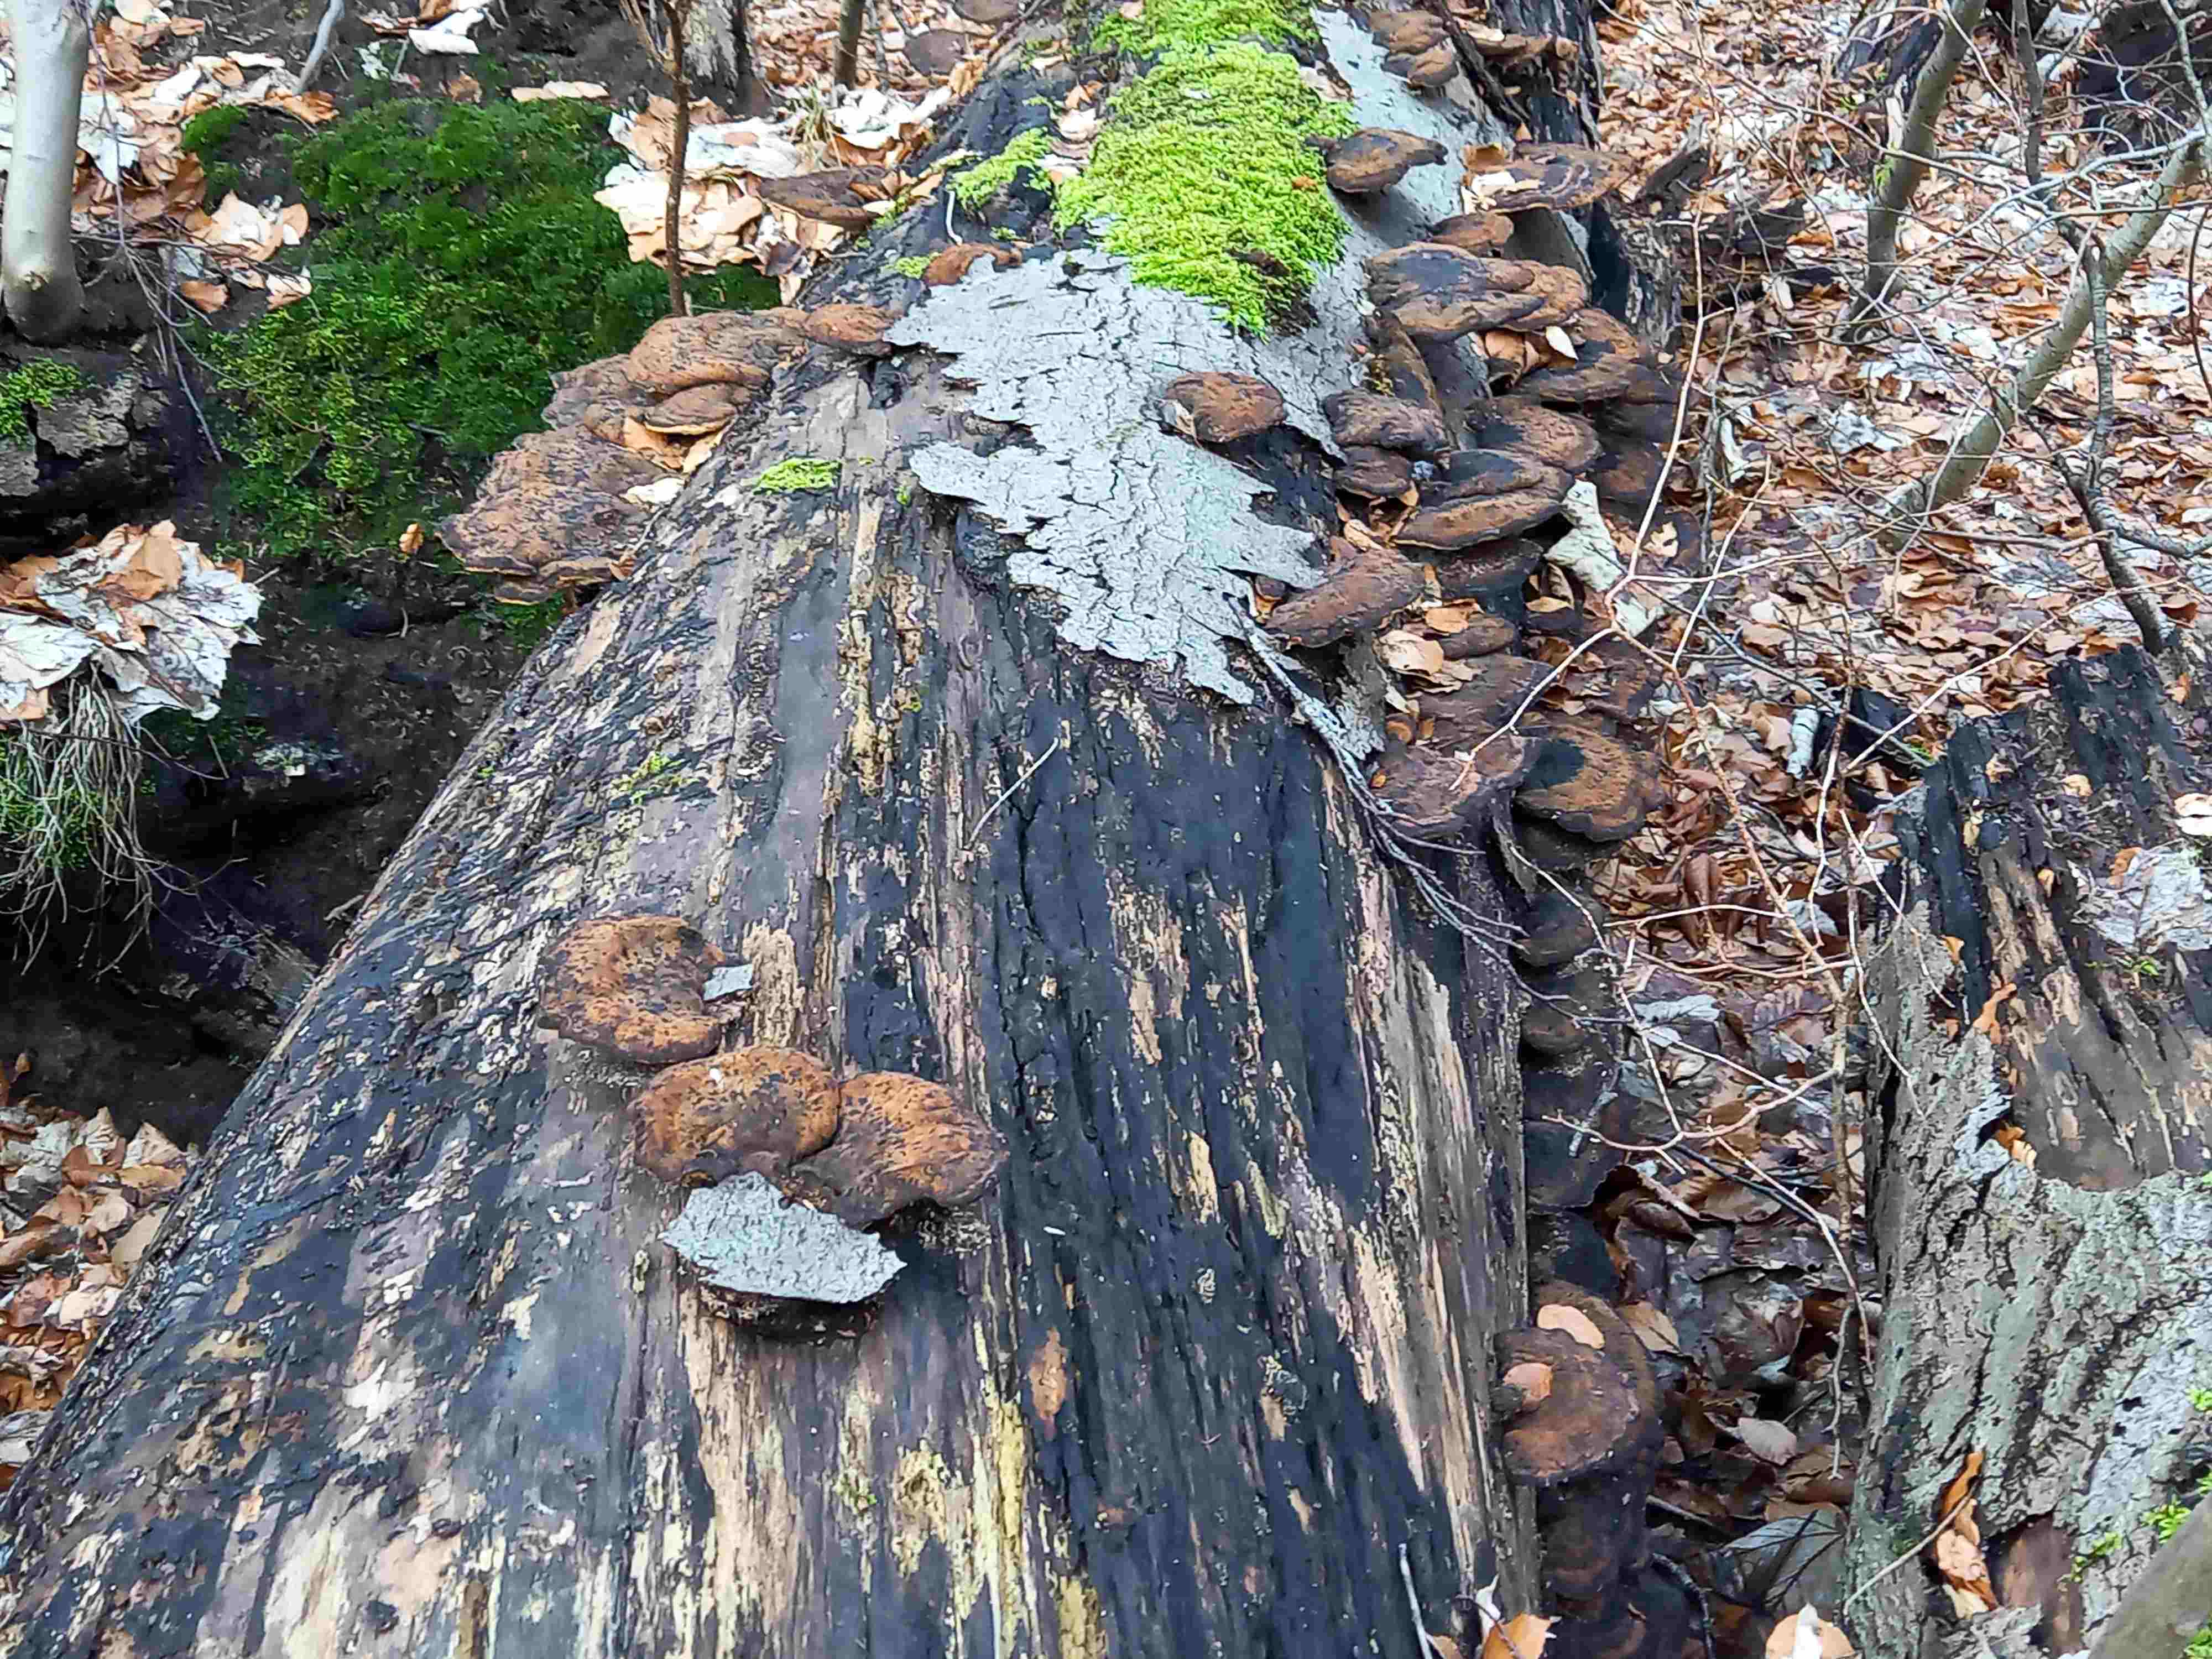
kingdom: Fungi
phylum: Basidiomycota
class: Agaricomycetes
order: Polyporales
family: Ischnodermataceae
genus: Ischnoderma
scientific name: Ischnoderma resinosum
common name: løv-tjæreporesvamp
